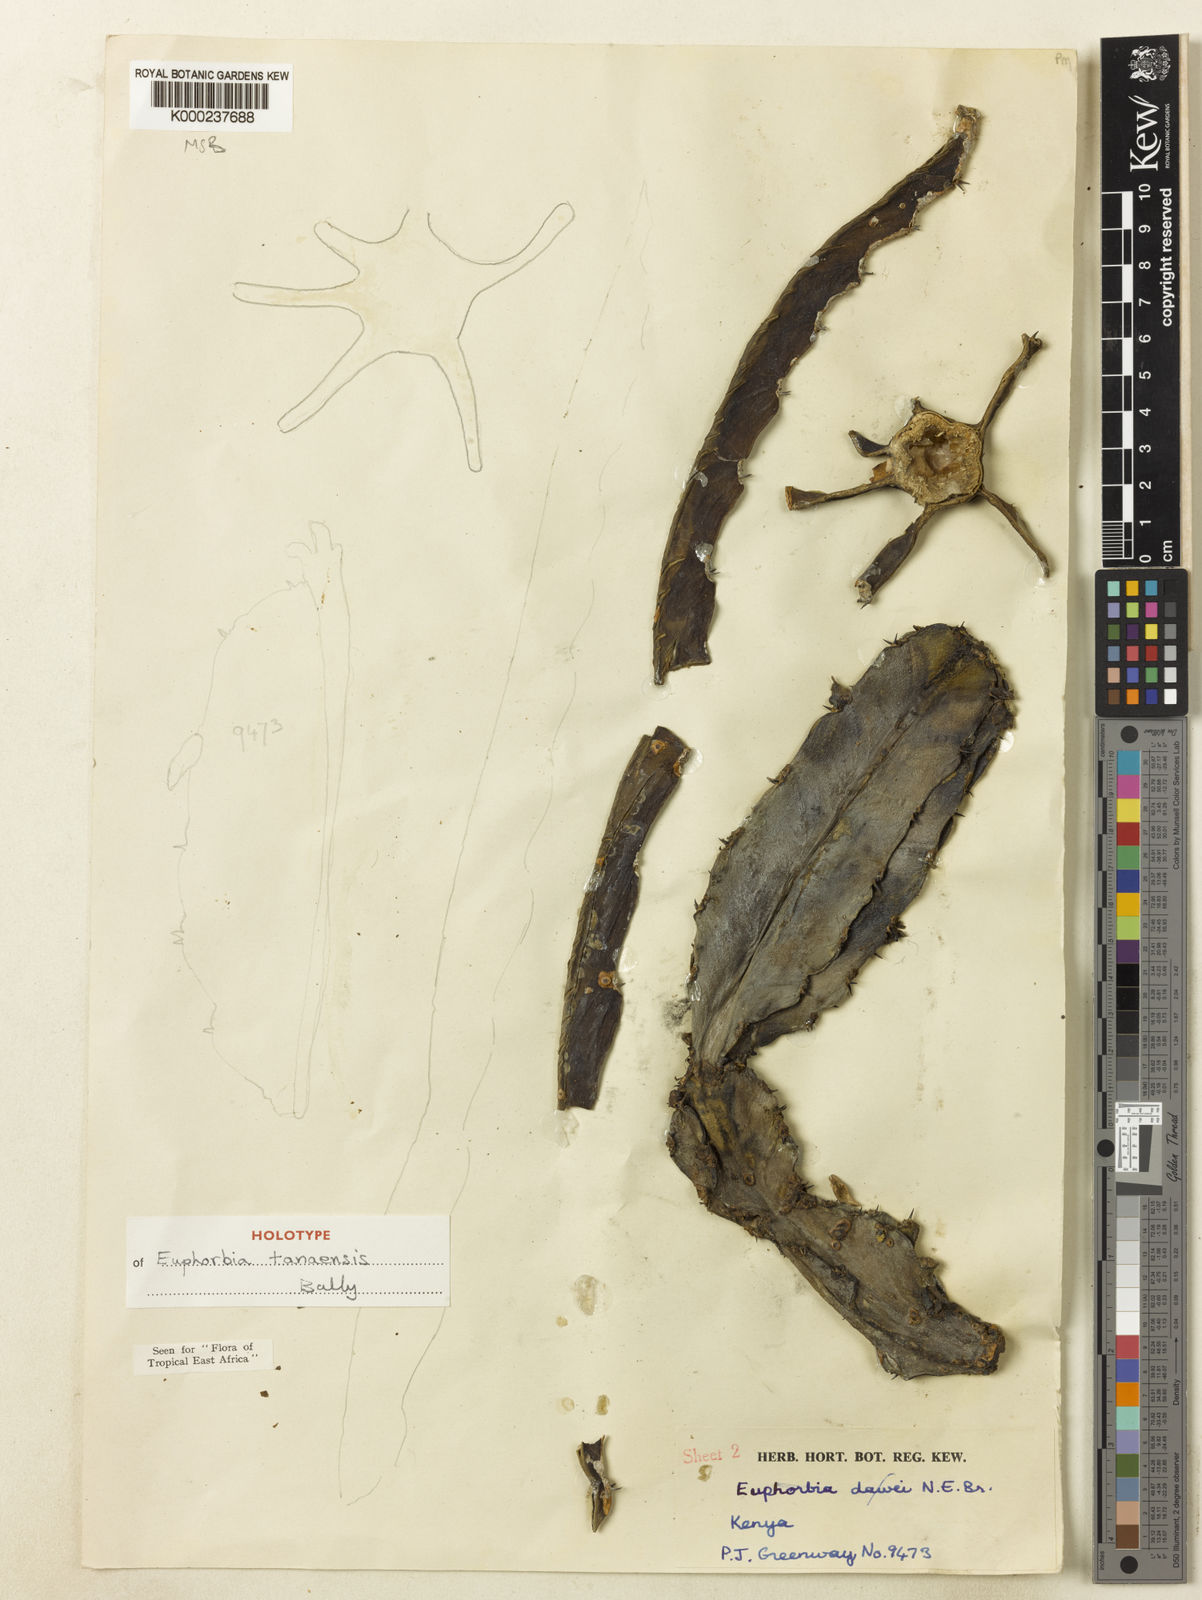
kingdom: Plantae
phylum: Tracheophyta
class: Magnoliopsida
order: Malpighiales
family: Euphorbiaceae
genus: Euphorbia
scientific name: Euphorbia tanaensis
